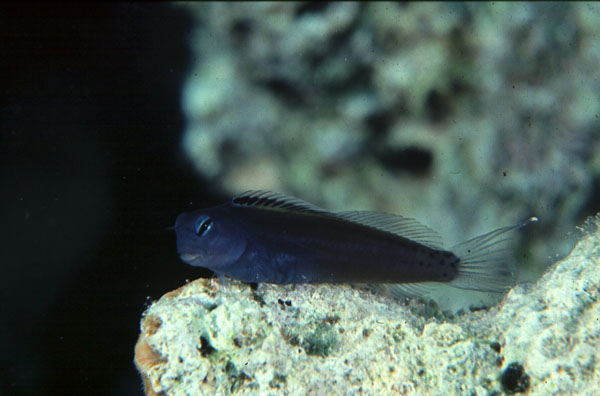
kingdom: Animalia
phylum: Chordata
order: Perciformes
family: Blenniidae
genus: Ecsenius
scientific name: Ecsenius gravieri
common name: Red sea mimic blenny
